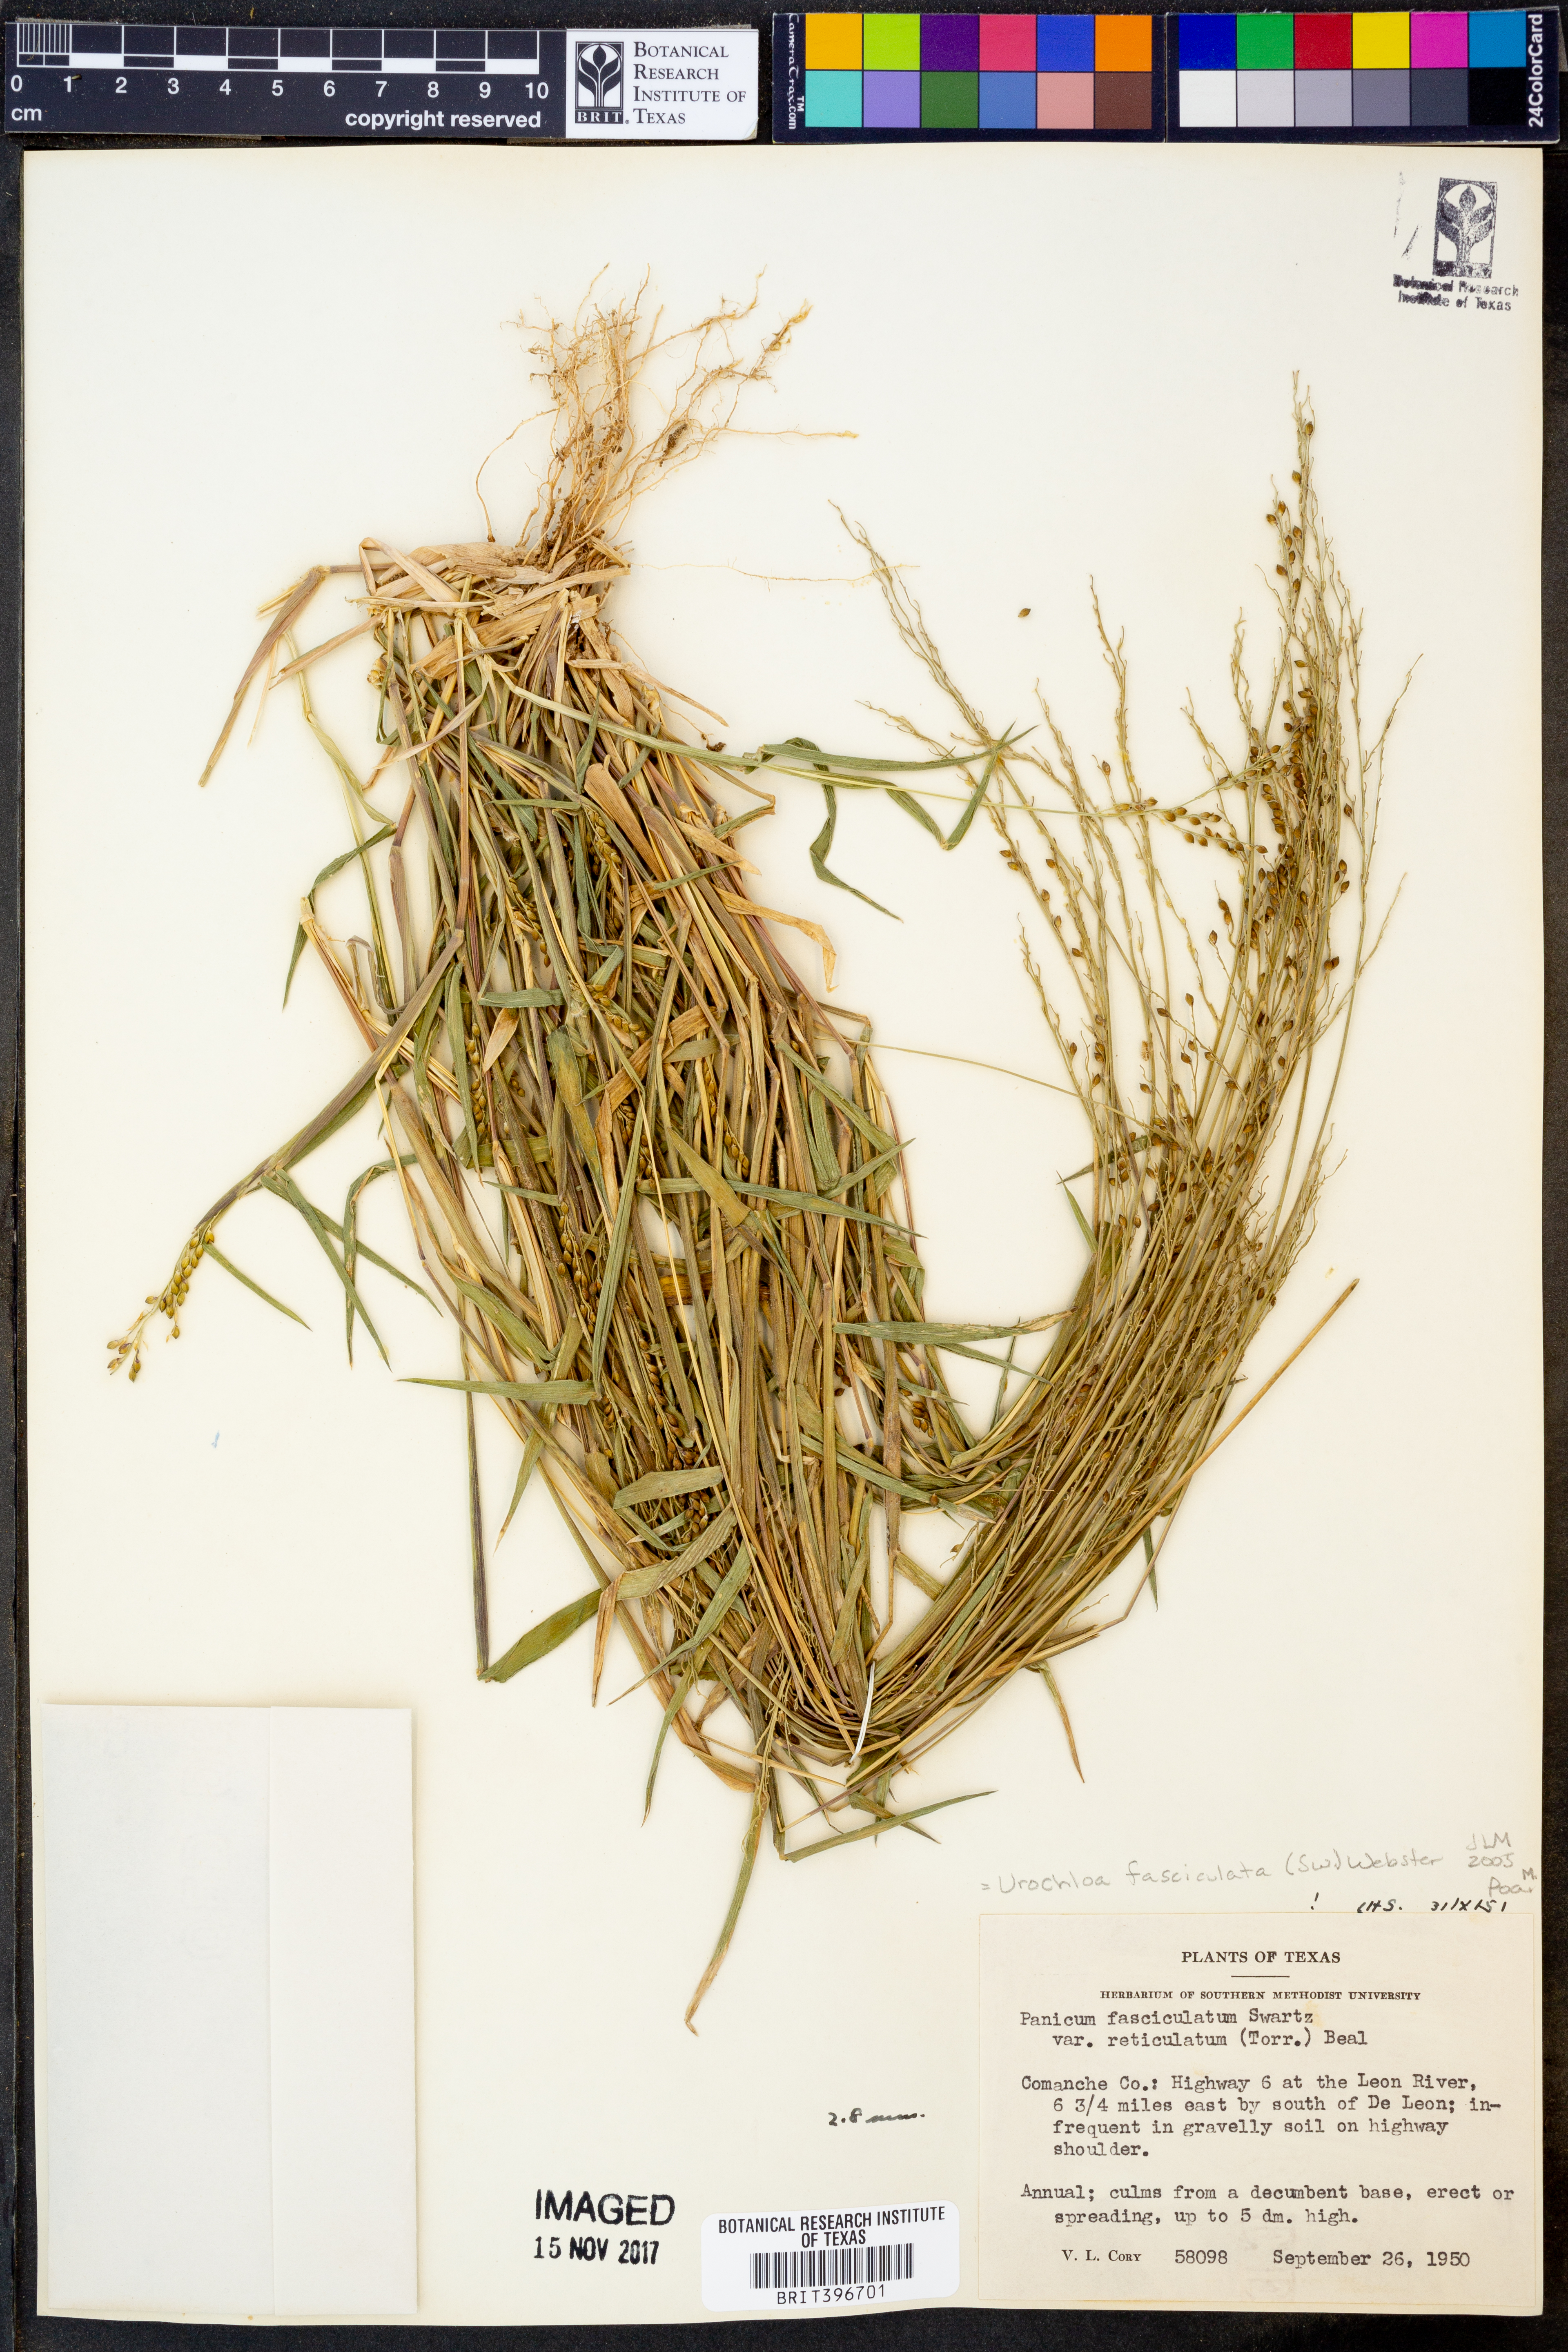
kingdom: Plantae
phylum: Tracheophyta
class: Liliopsida
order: Poales
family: Poaceae
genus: Urochloa
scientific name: Urochloa fusca
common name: Browntop signal grass
